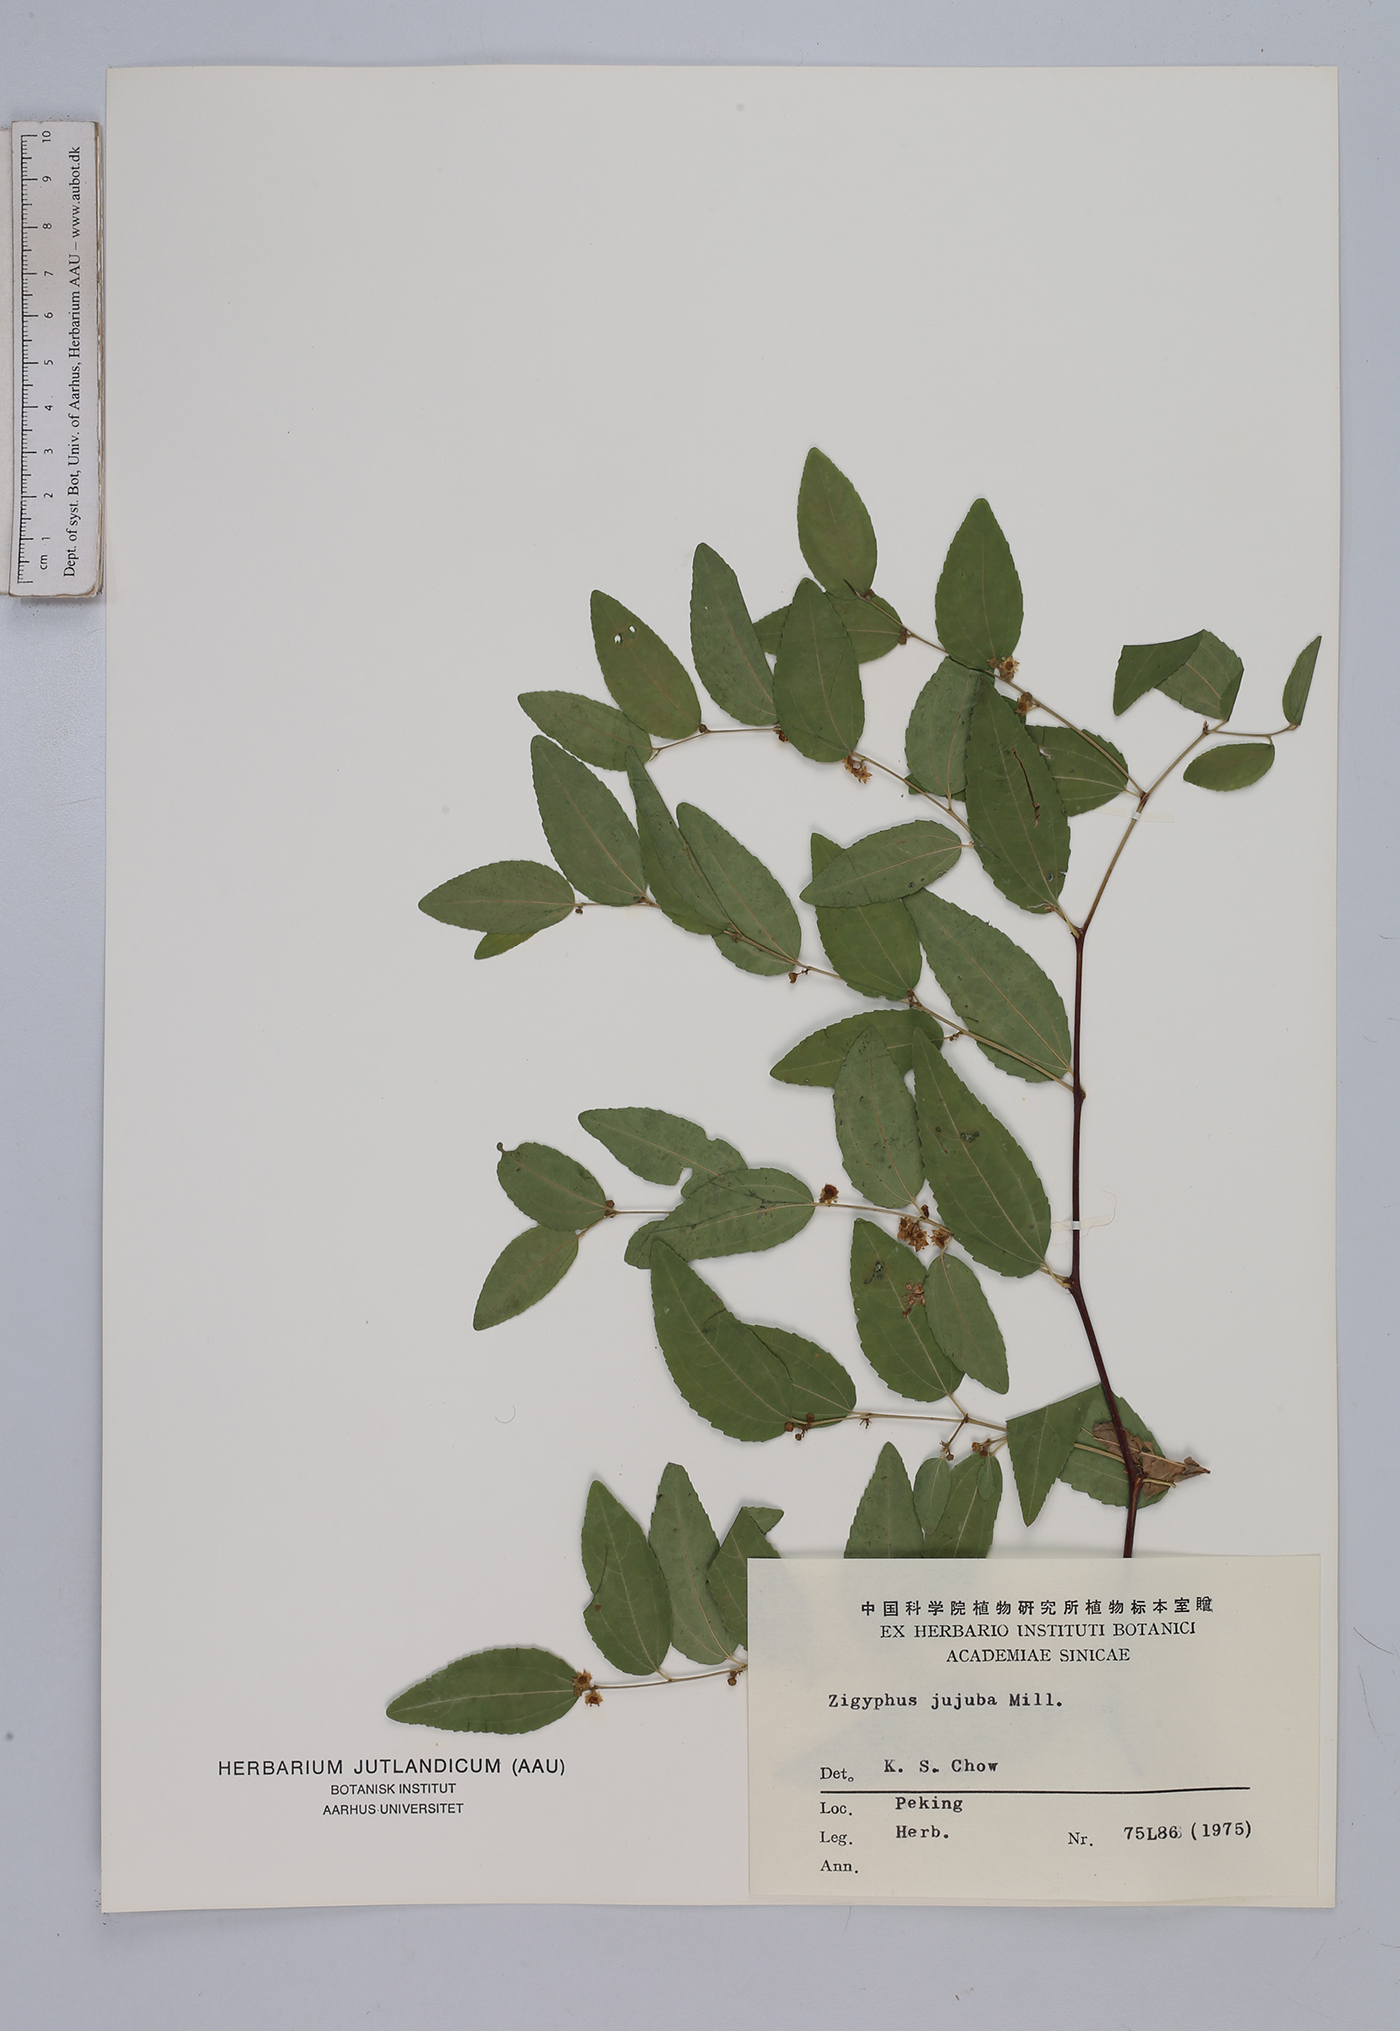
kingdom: Plantae
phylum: Tracheophyta
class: Magnoliopsida
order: Rosales
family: Rhamnaceae
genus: Ziziphus
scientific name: Ziziphus jujuba
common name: Jujube red date
